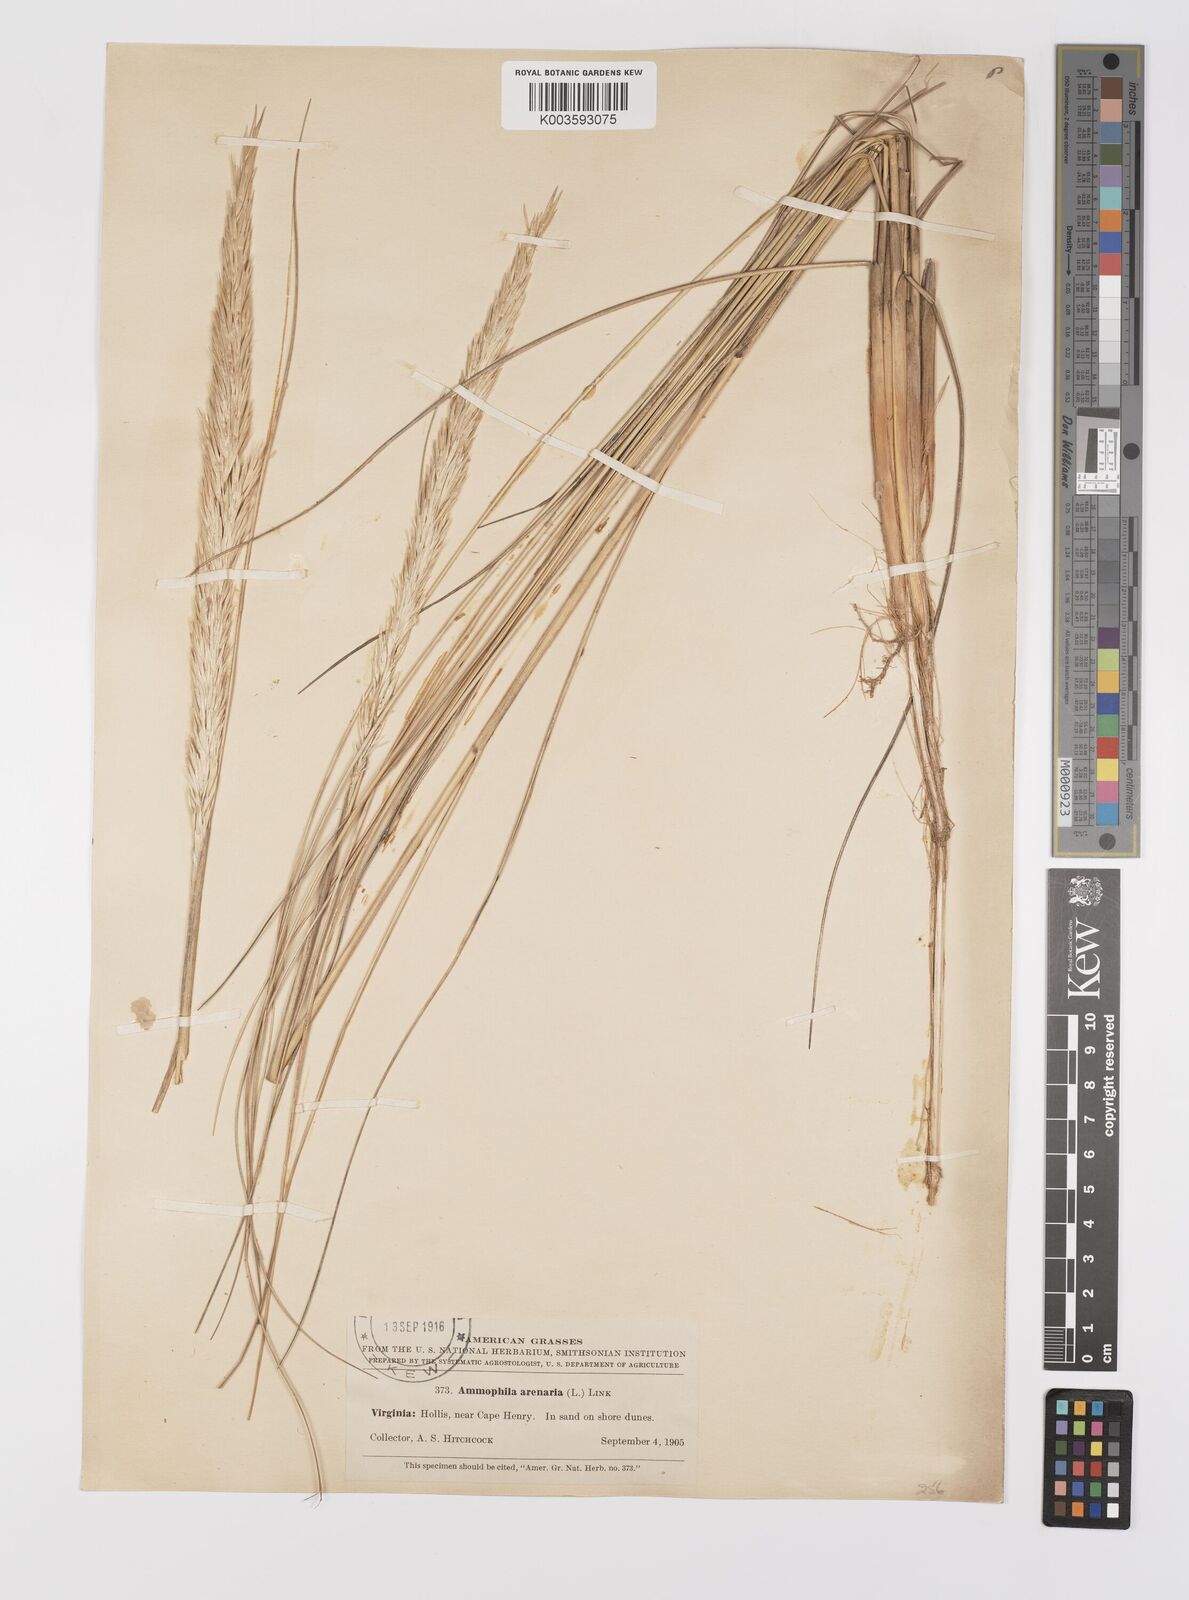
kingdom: Plantae
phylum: Tracheophyta
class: Liliopsida
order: Poales
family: Poaceae
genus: Calamagrostis
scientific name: Calamagrostis breviligulata
